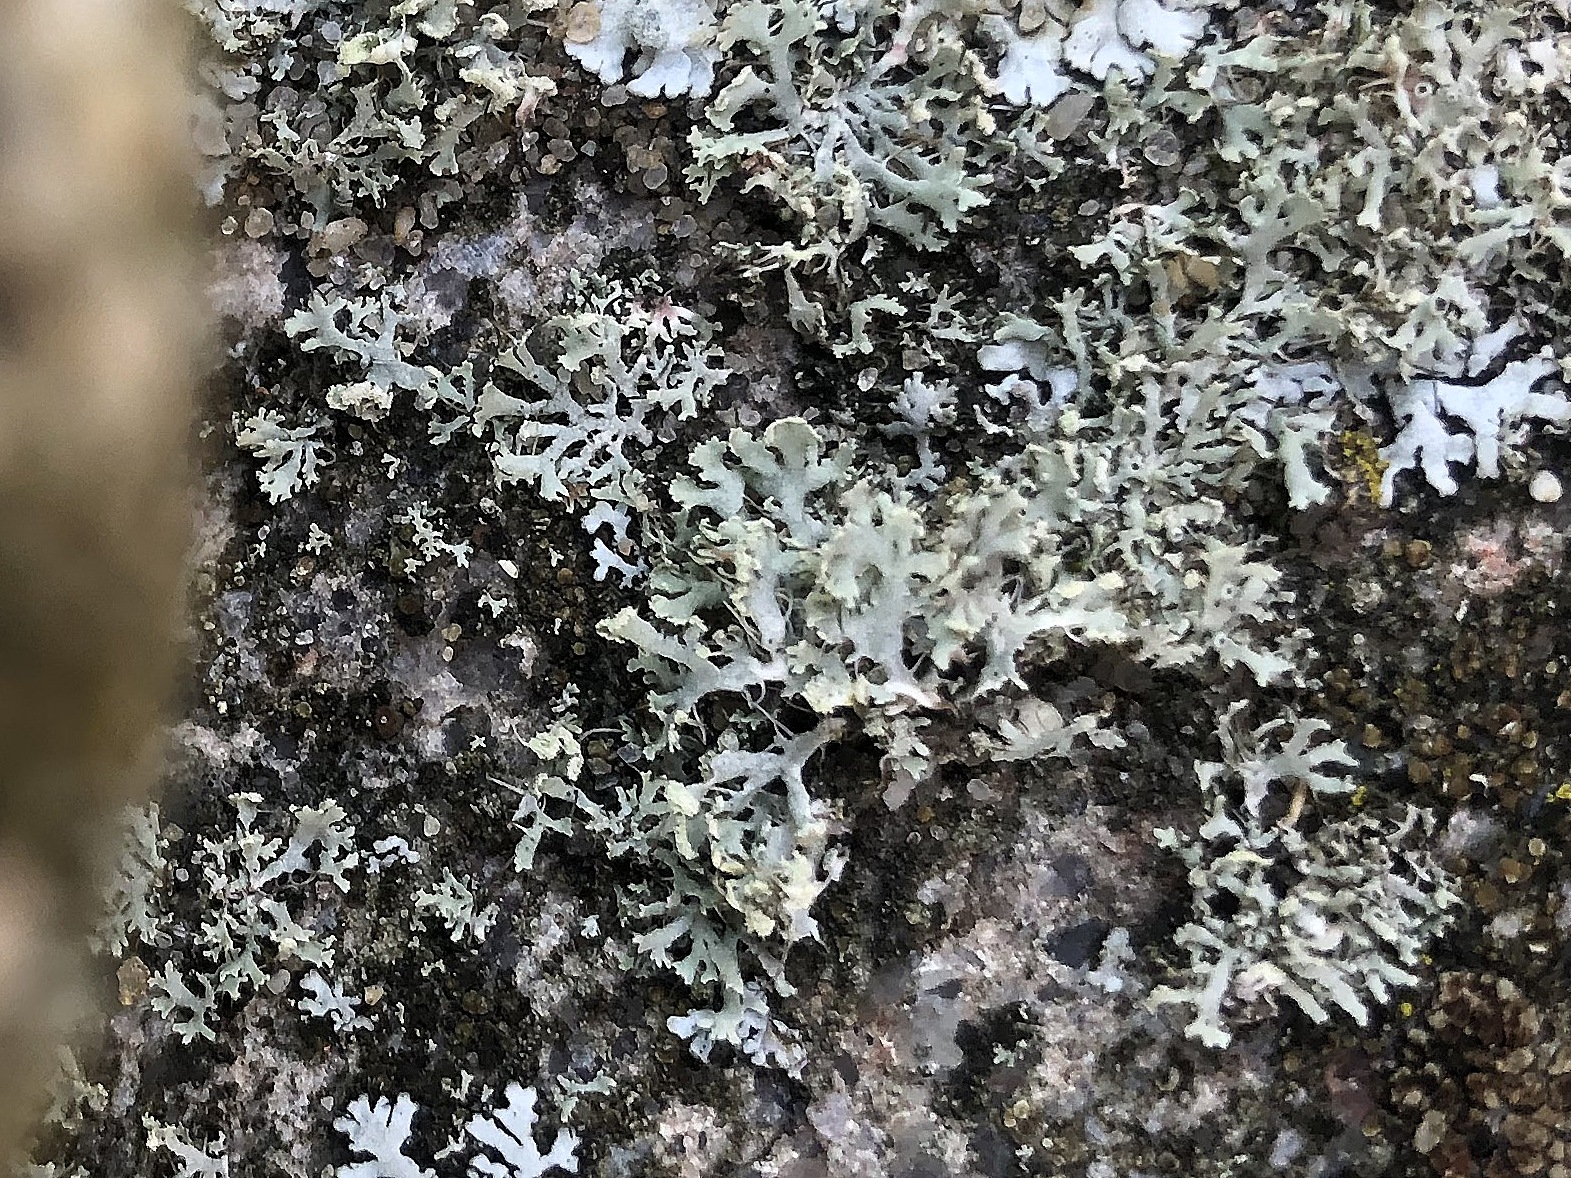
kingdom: Fungi
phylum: Ascomycota
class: Lecanoromycetes
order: Caliciales
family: Physciaceae
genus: Physcia
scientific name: Physcia tenella
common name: spæd rosetlav
